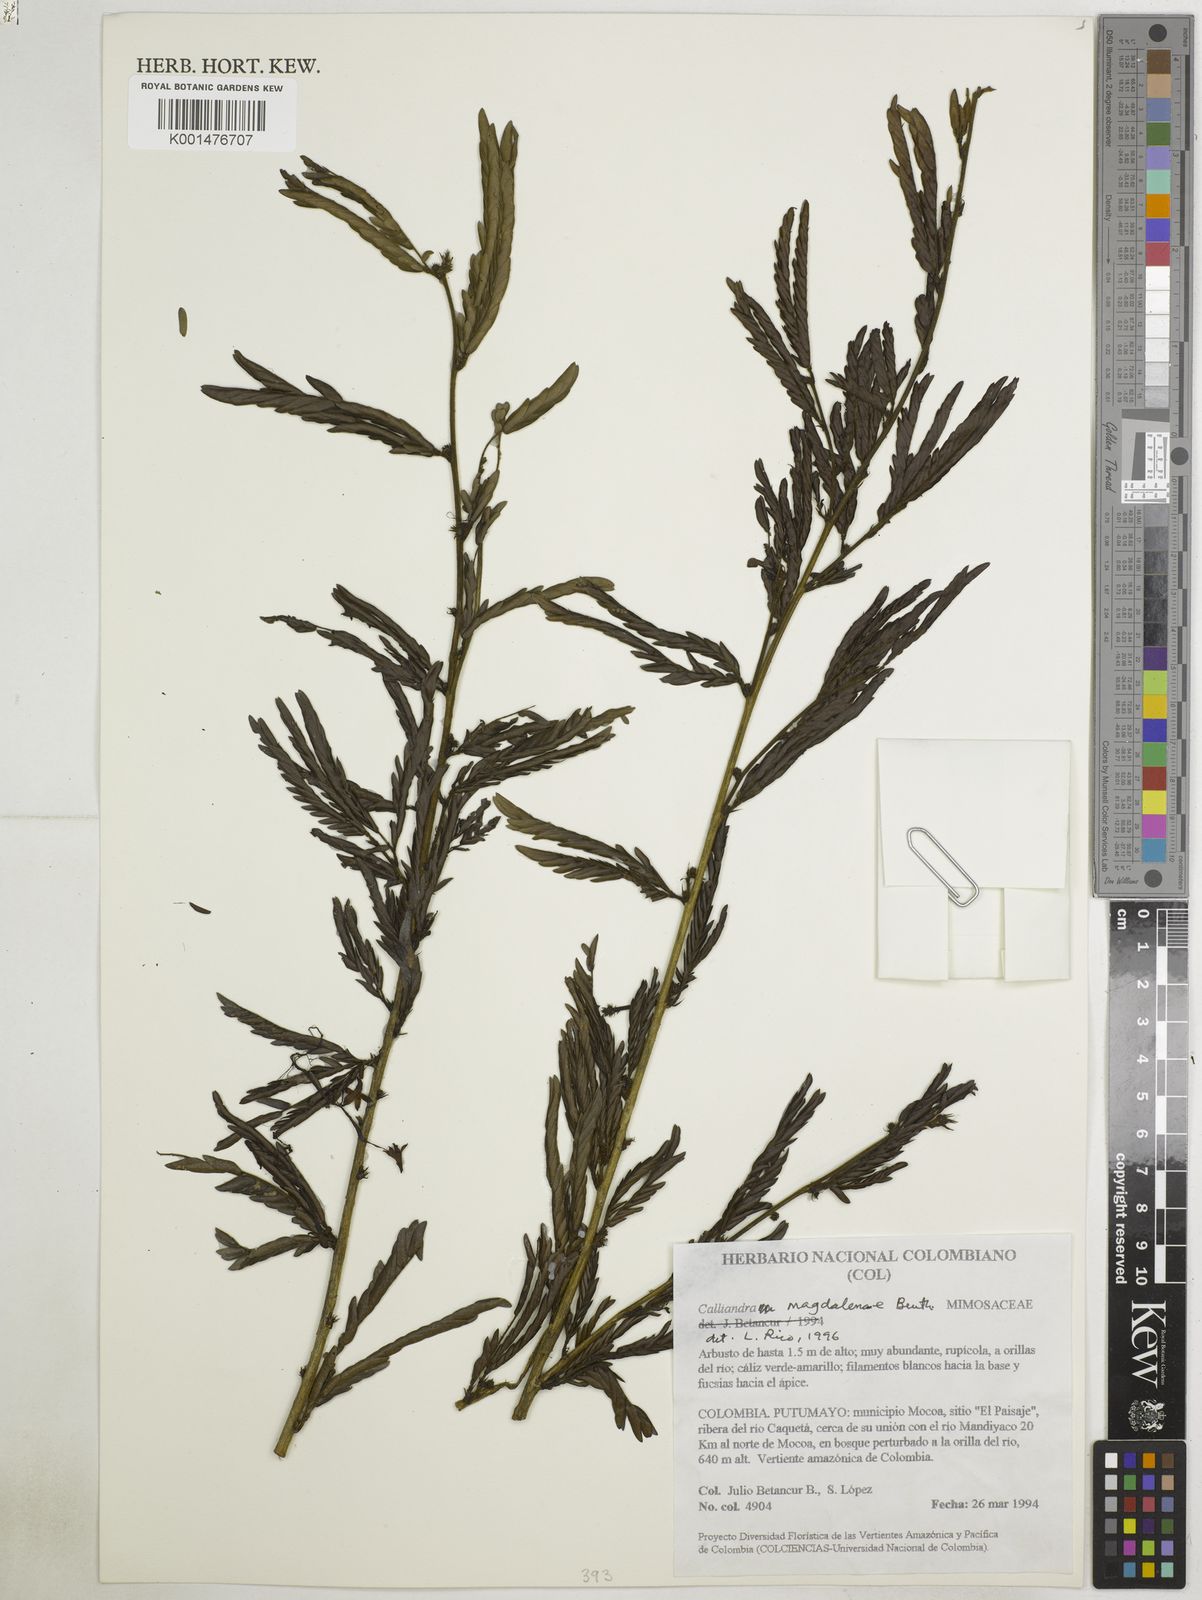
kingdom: Plantae
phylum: Tracheophyta
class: Magnoliopsida
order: Fabales
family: Fabaceae
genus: Calliandra
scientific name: Calliandra magdalenae
